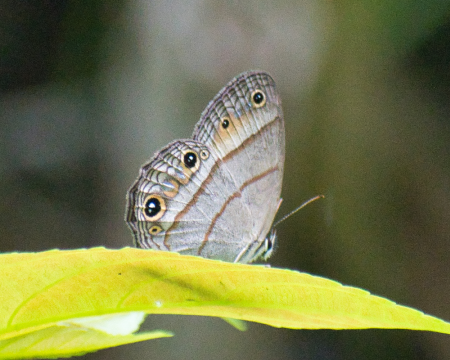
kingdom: Animalia
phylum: Arthropoda
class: Insecta
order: Lepidoptera
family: Nymphalidae
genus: Euptychia
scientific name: Euptychia Cissia pompilia
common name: Plain Satyr
